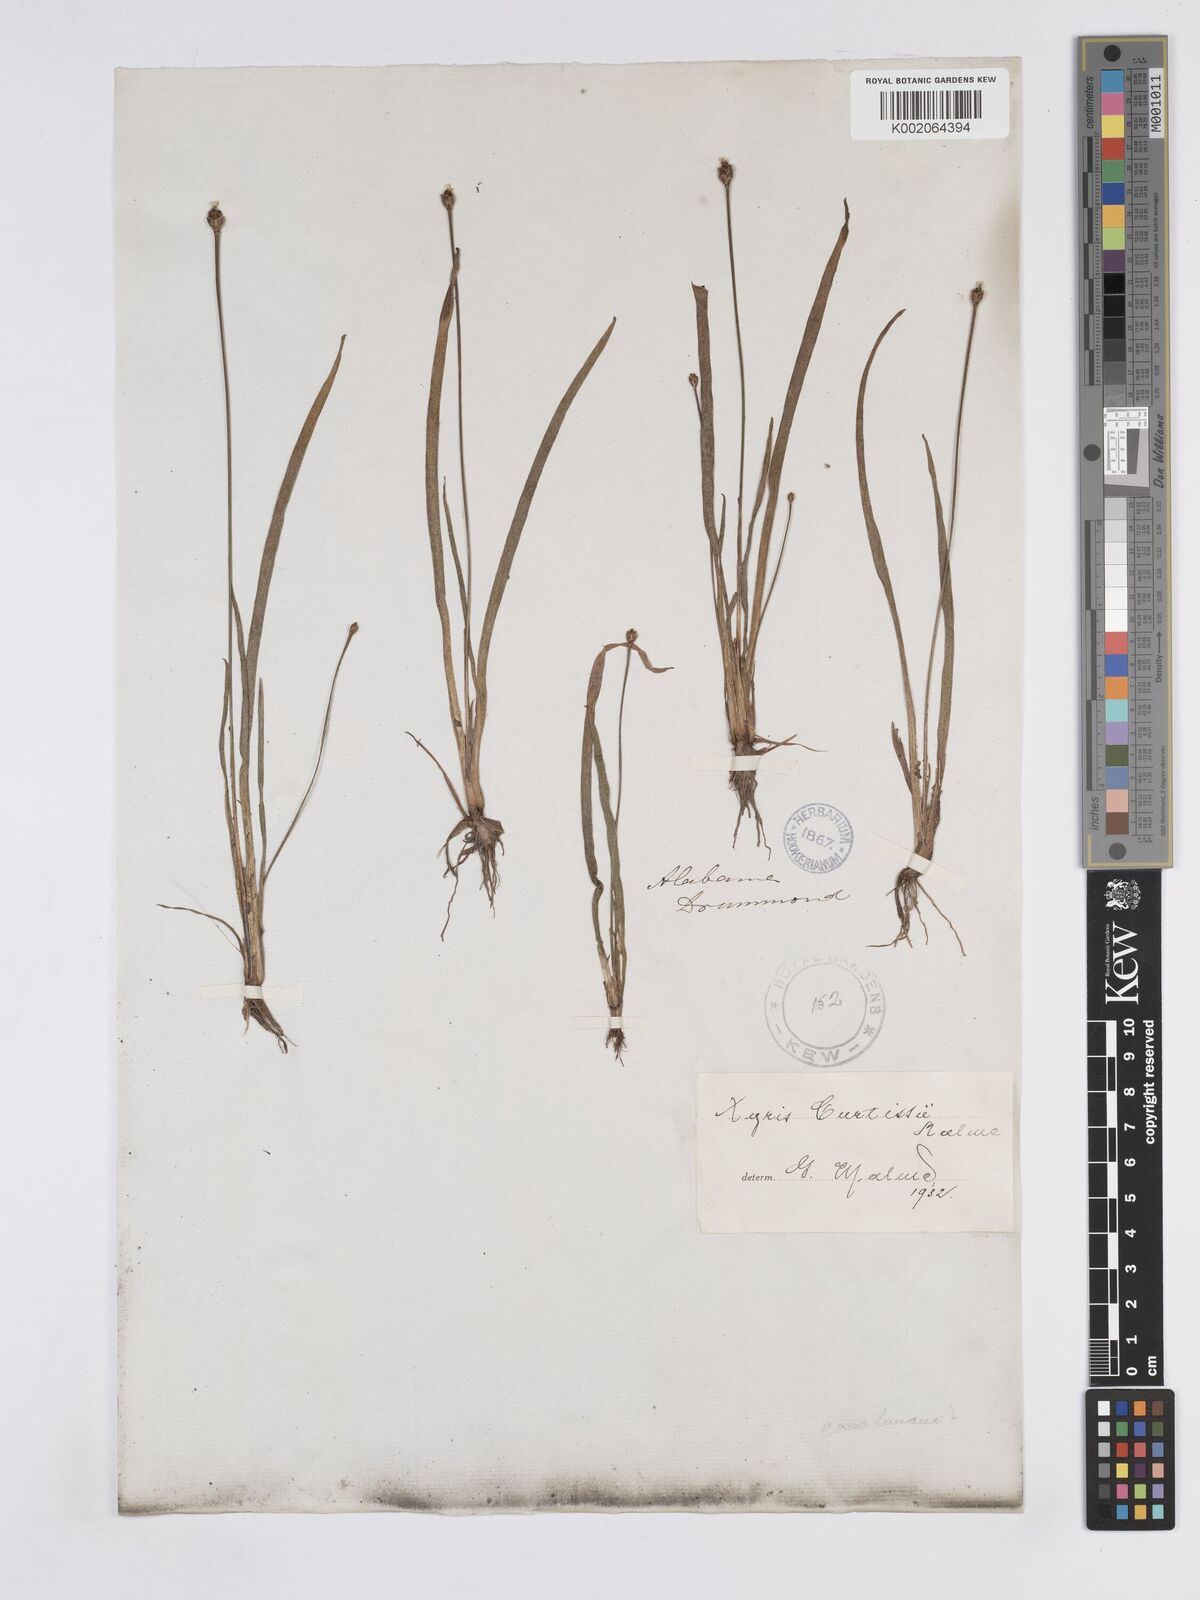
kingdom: Plantae
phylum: Tracheophyta
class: Liliopsida
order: Poales
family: Xyridaceae
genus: Xyris
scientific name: Xyris difformis
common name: Bog yellow-eyed-grass
